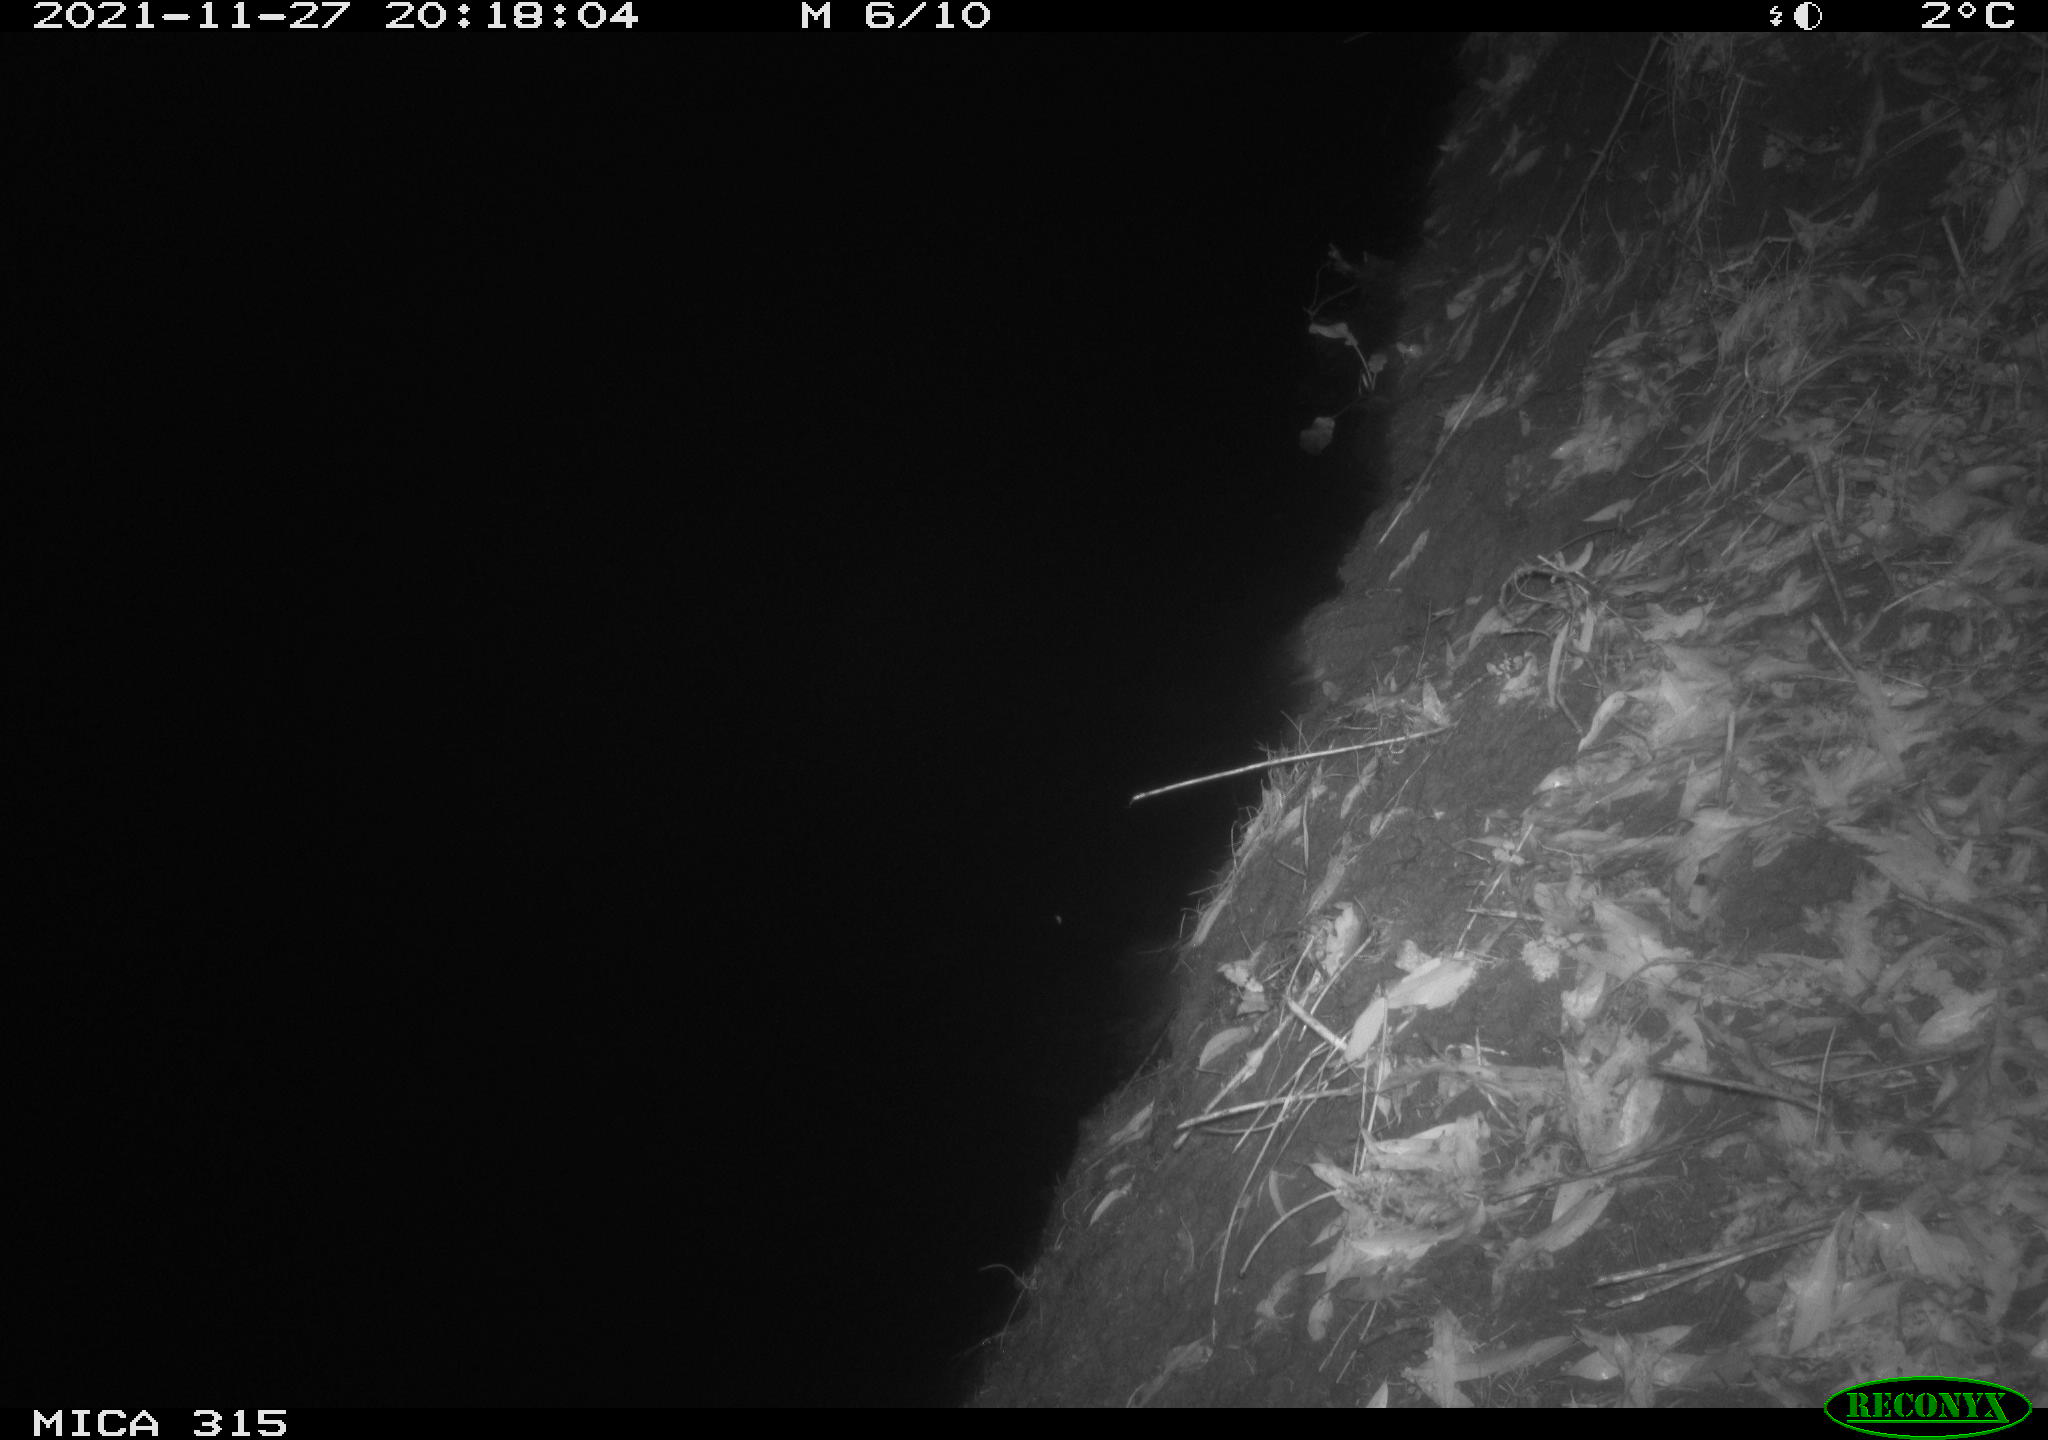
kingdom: Animalia
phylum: Chordata
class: Mammalia
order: Rodentia
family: Muridae
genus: Rattus
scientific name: Rattus norvegicus
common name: Brown rat
